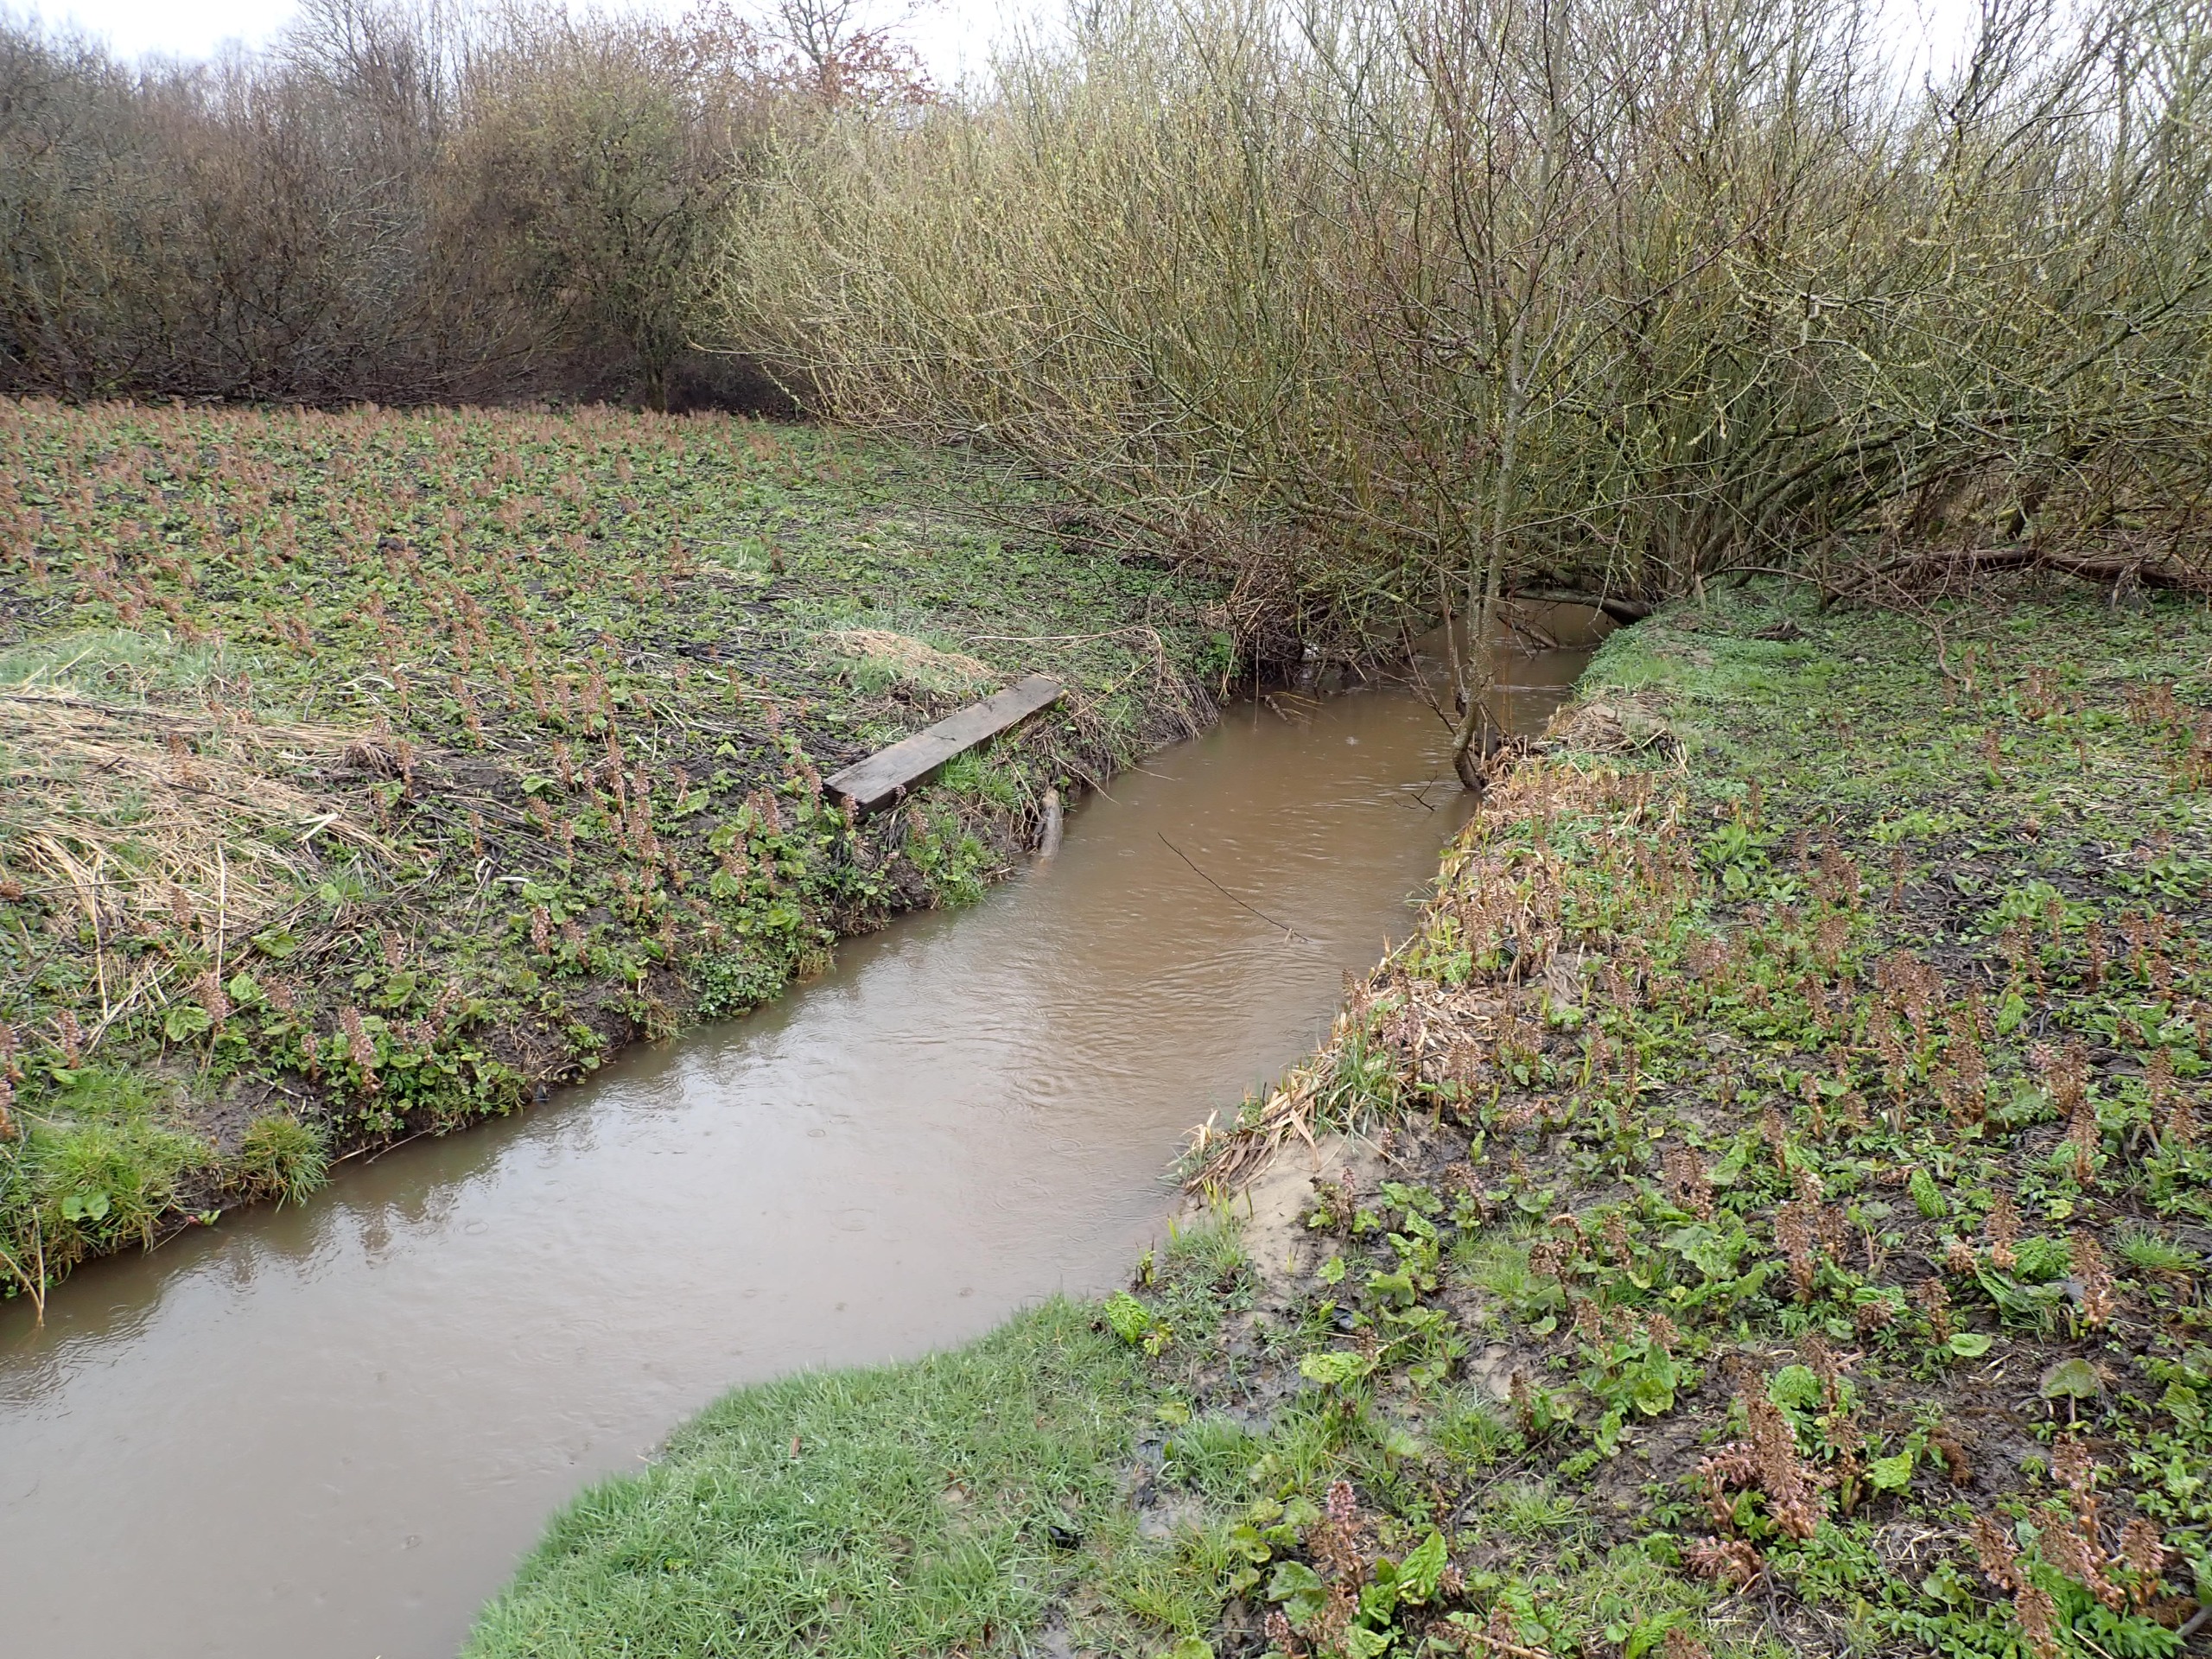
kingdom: Plantae
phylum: Tracheophyta
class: Magnoliopsida
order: Asterales
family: Asteraceae
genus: Petasites
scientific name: Petasites hybridus
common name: Rød hestehov
